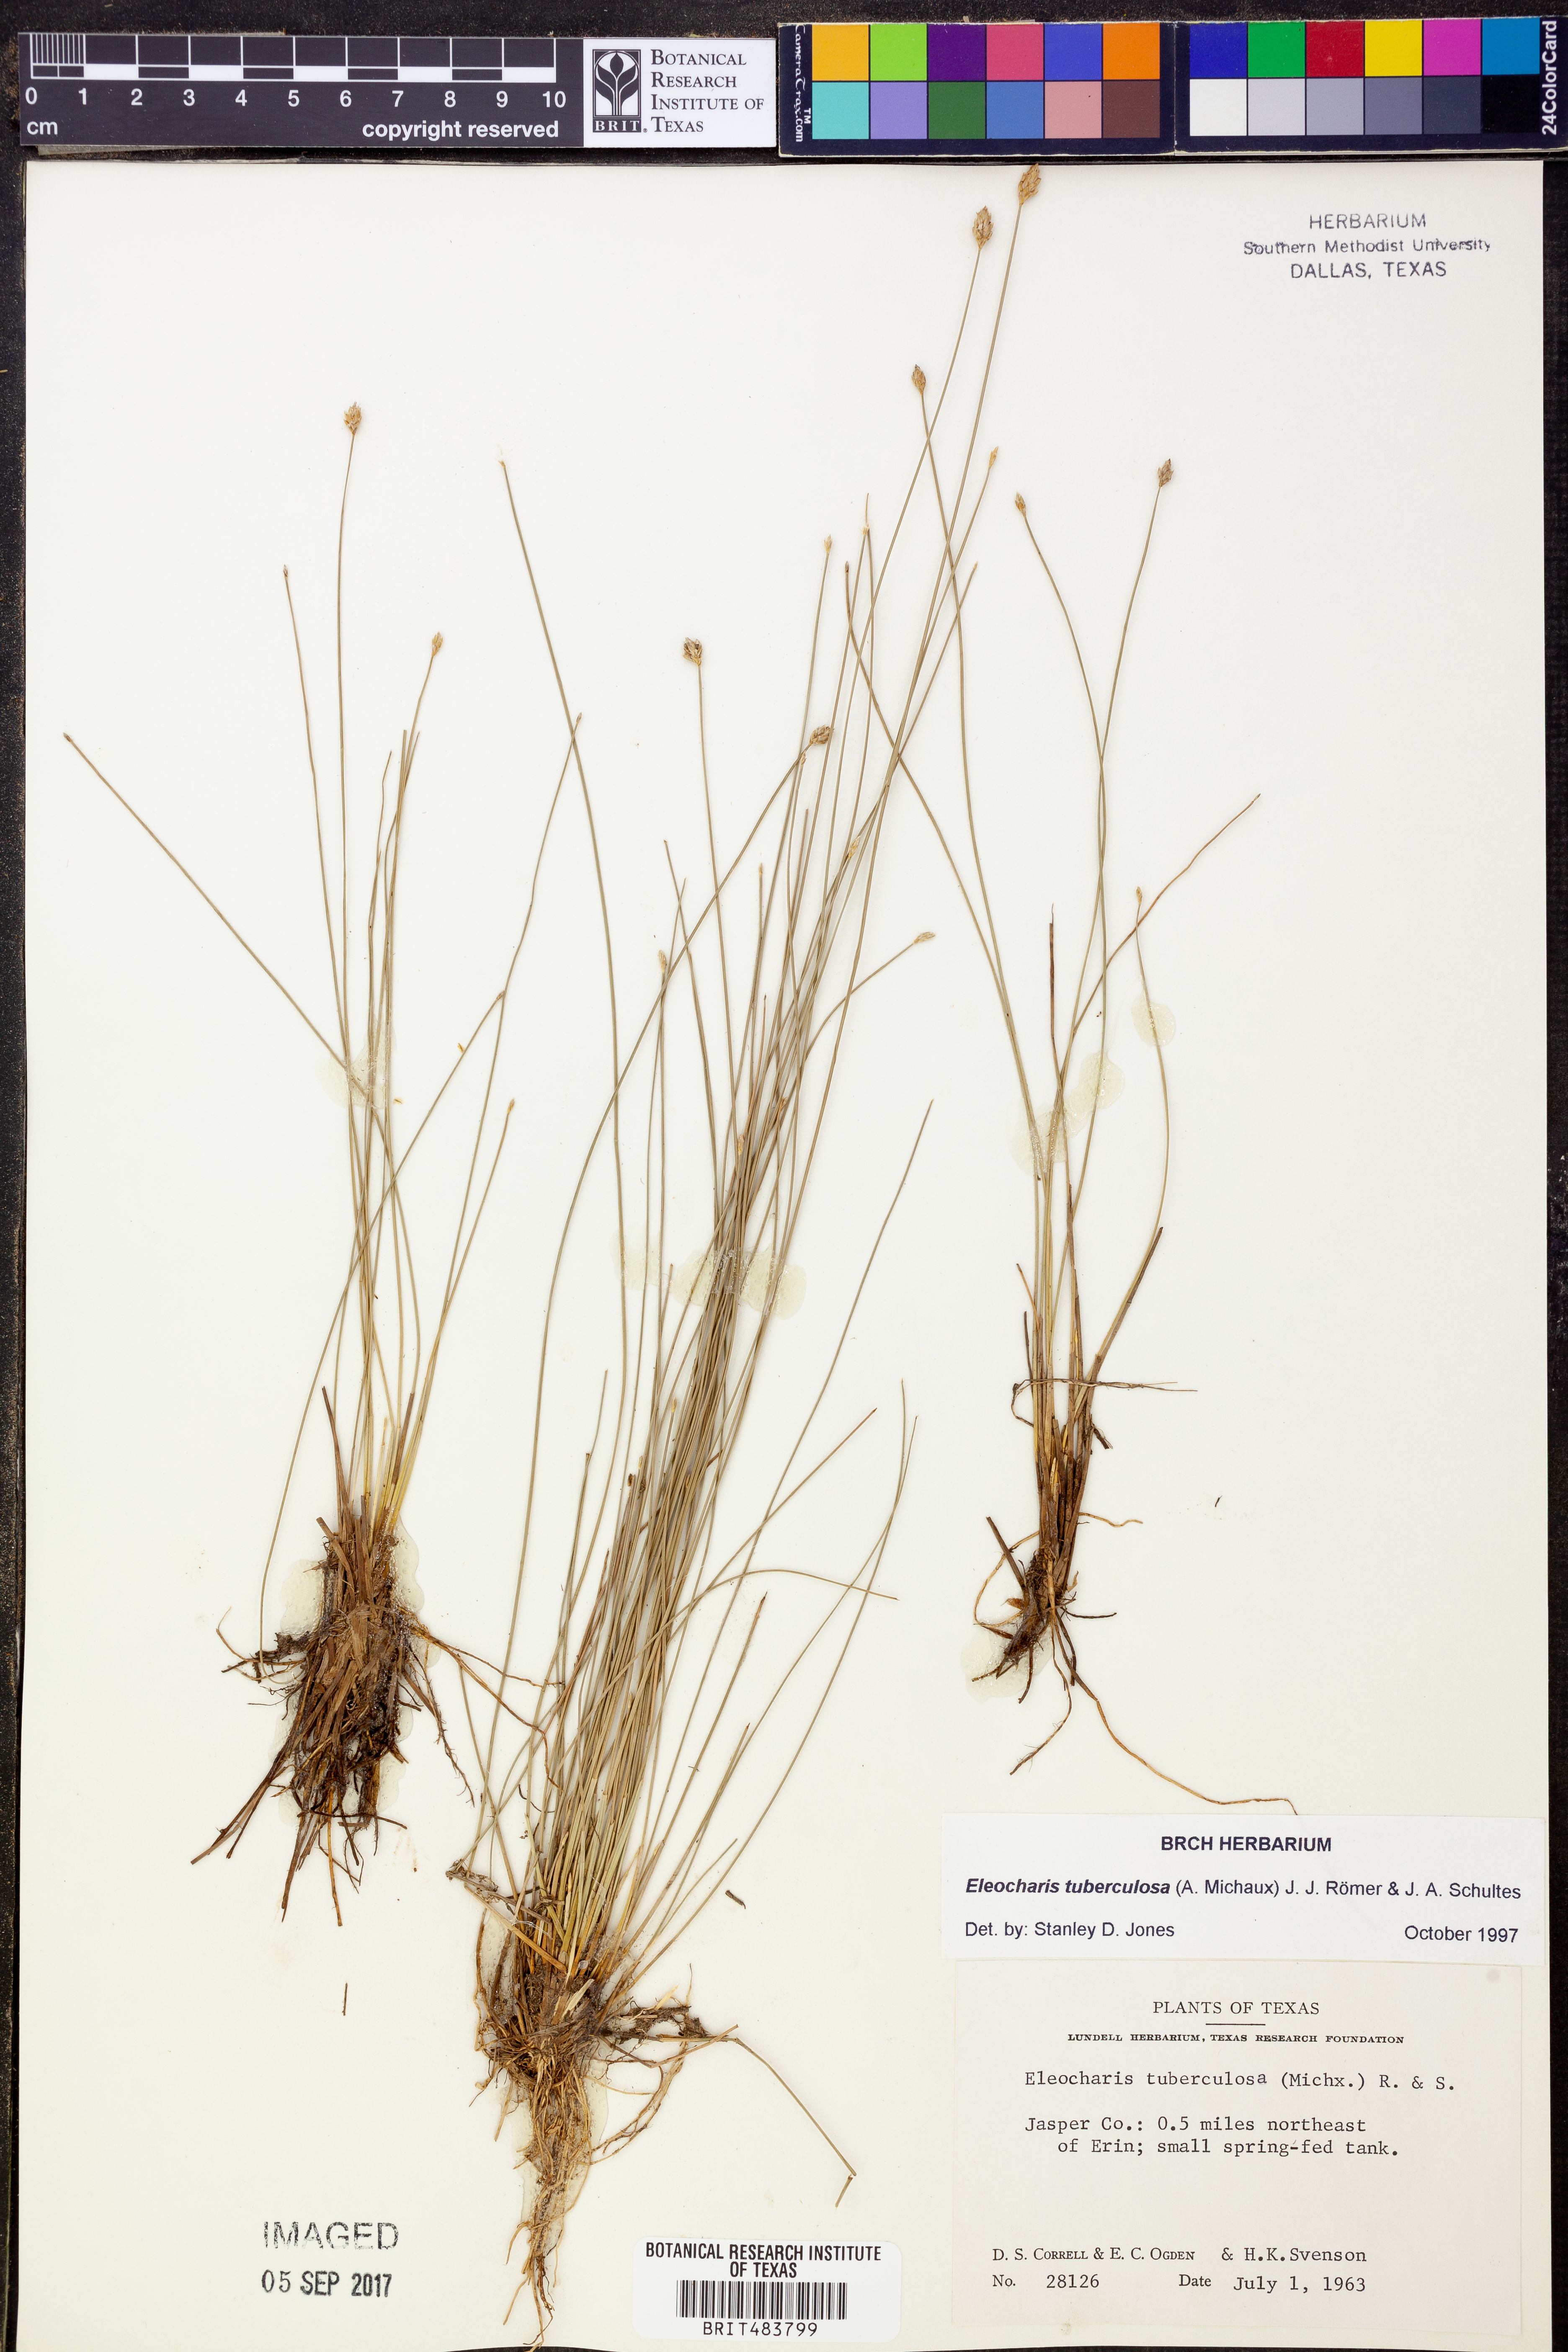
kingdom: Plantae
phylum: Tracheophyta
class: Liliopsida
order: Poales
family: Cyperaceae
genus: Eleocharis
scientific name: Eleocharis tuberculosa
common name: Cone-cup spikerush
